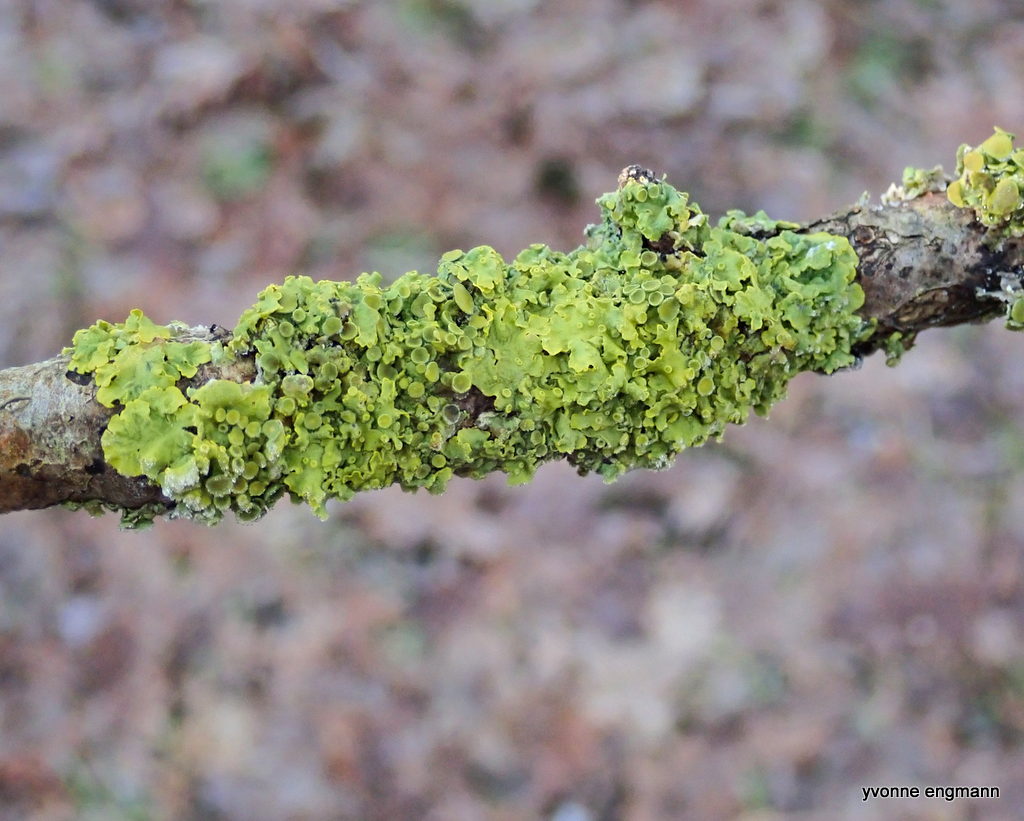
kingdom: Fungi
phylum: Ascomycota
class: Lecanoromycetes
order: Teloschistales
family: Teloschistaceae
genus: Xanthoria
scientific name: Xanthoria parietina
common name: almindelig væggelav
